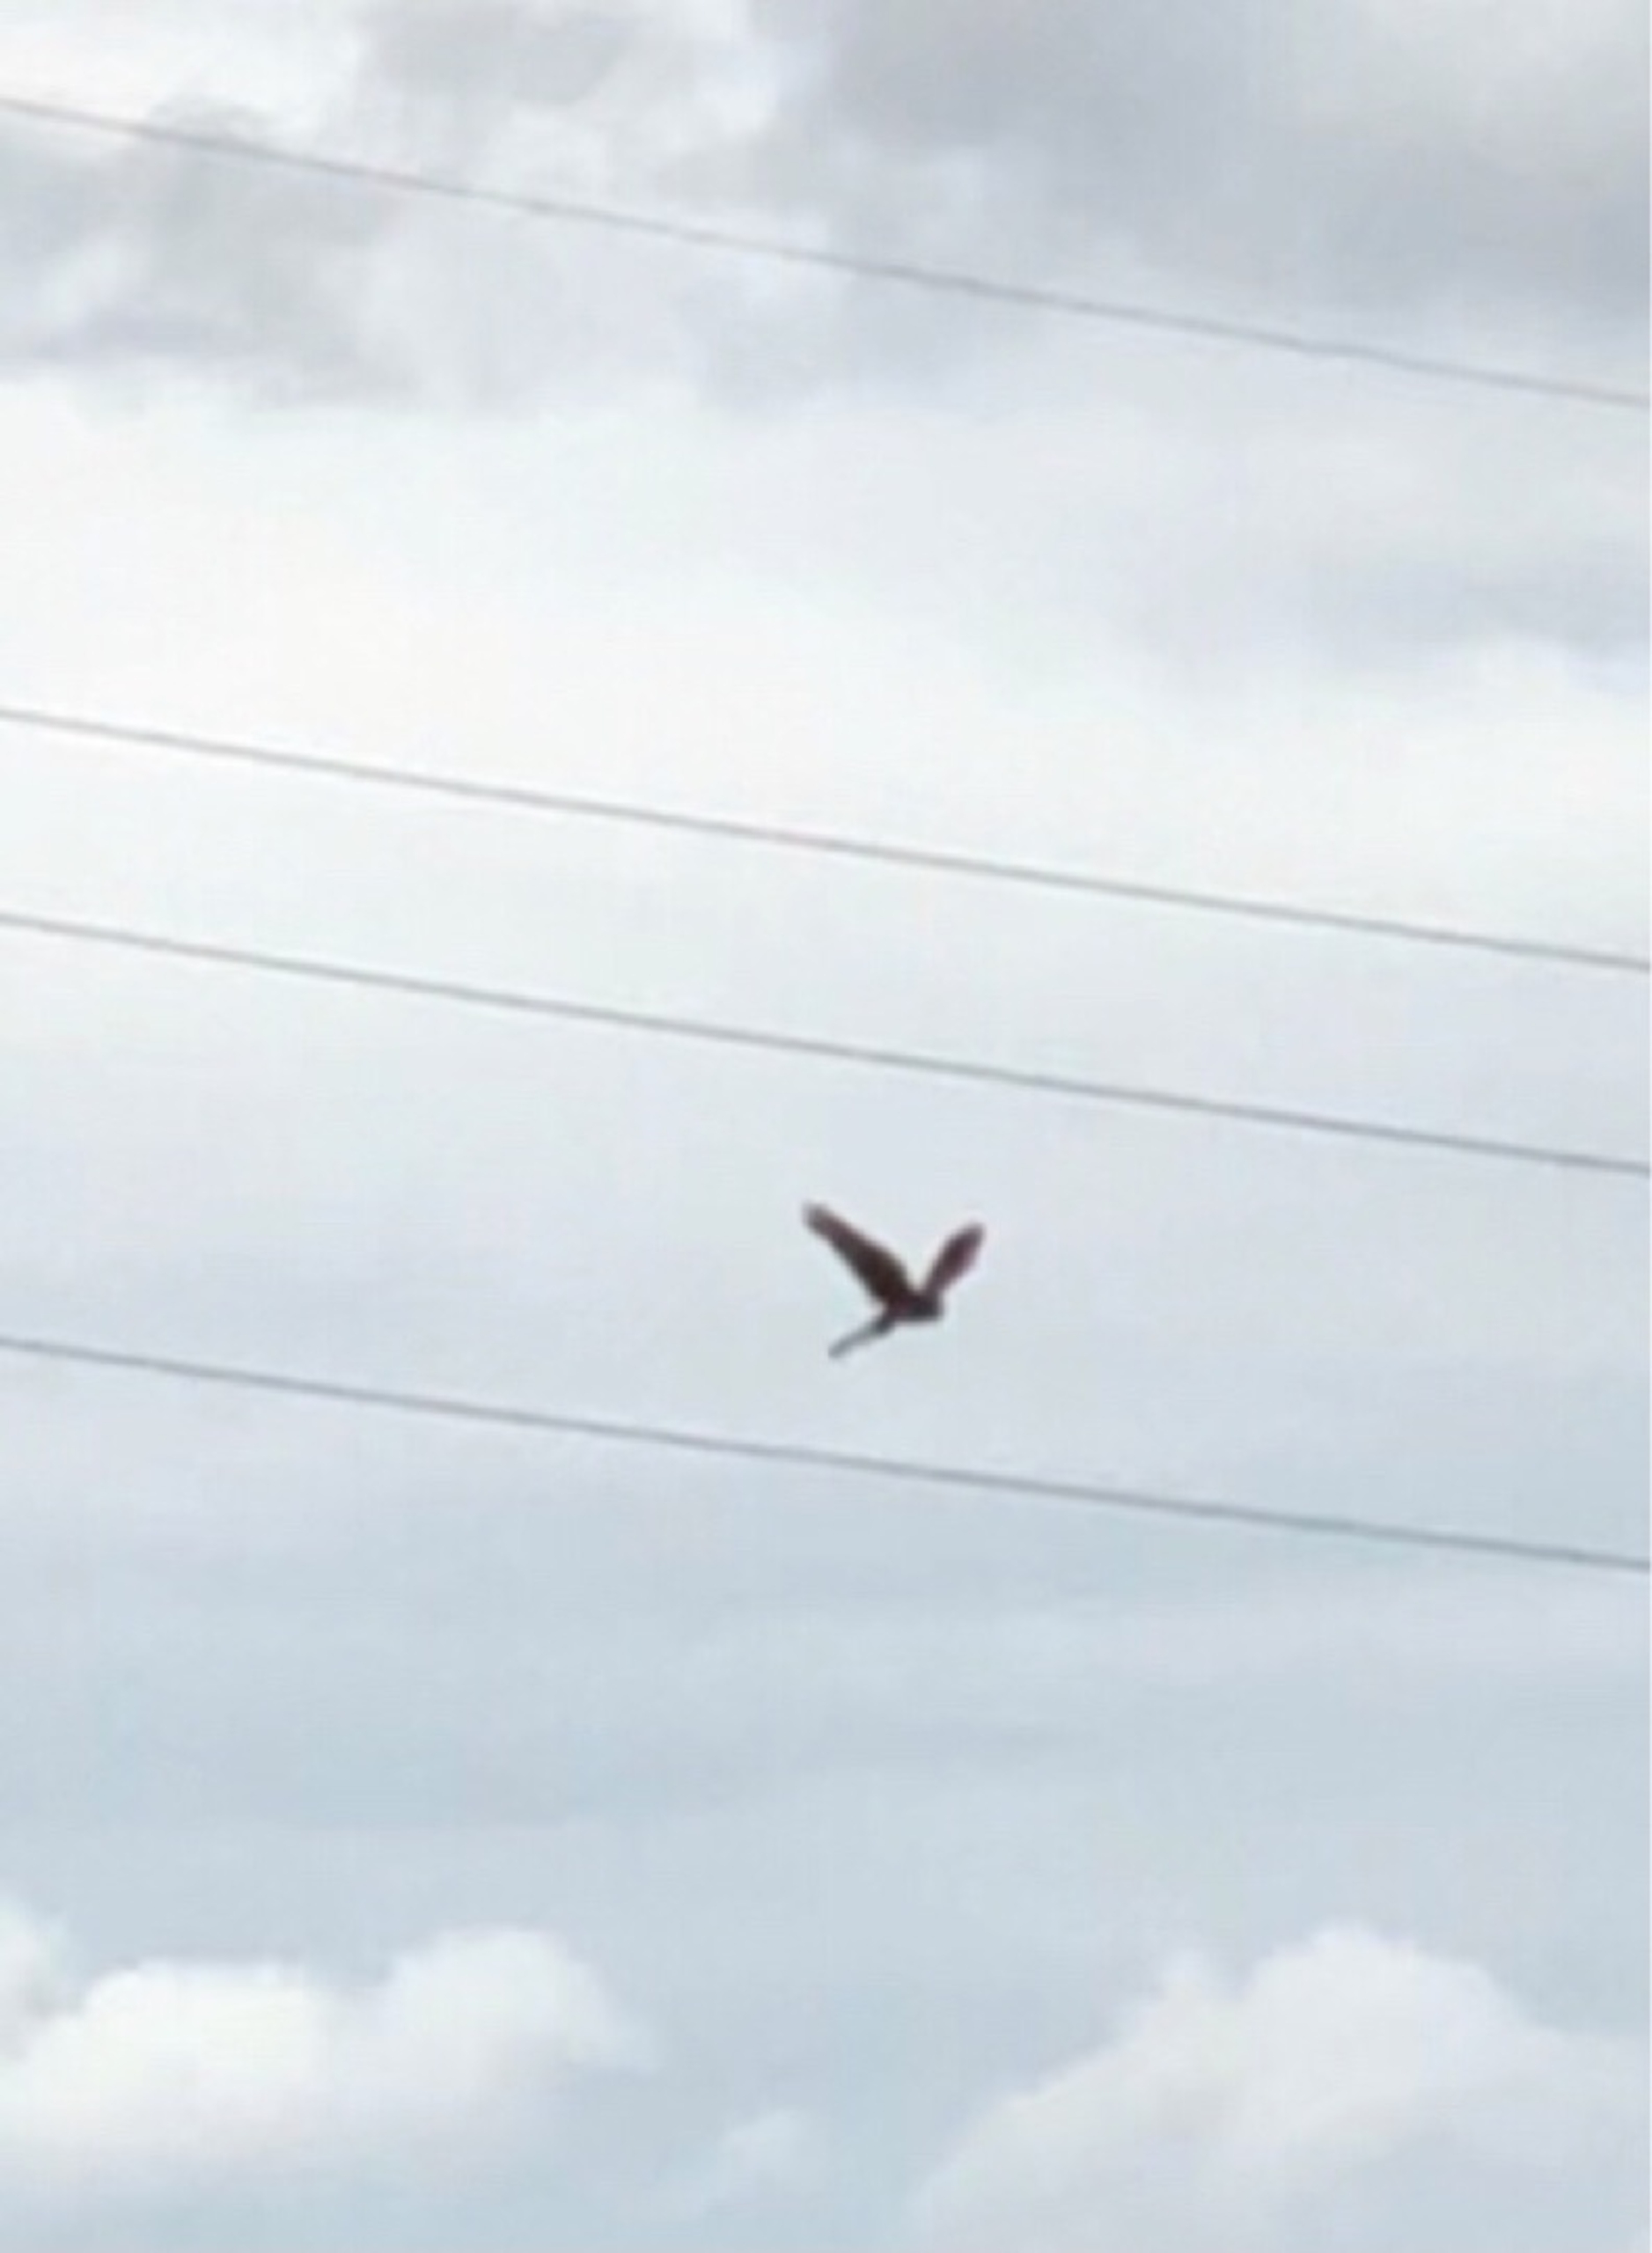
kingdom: Animalia
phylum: Chordata
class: Aves
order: Falconiformes
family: Falconidae
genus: Falco
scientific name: Falco tinnunculus
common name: Tårnfalk
